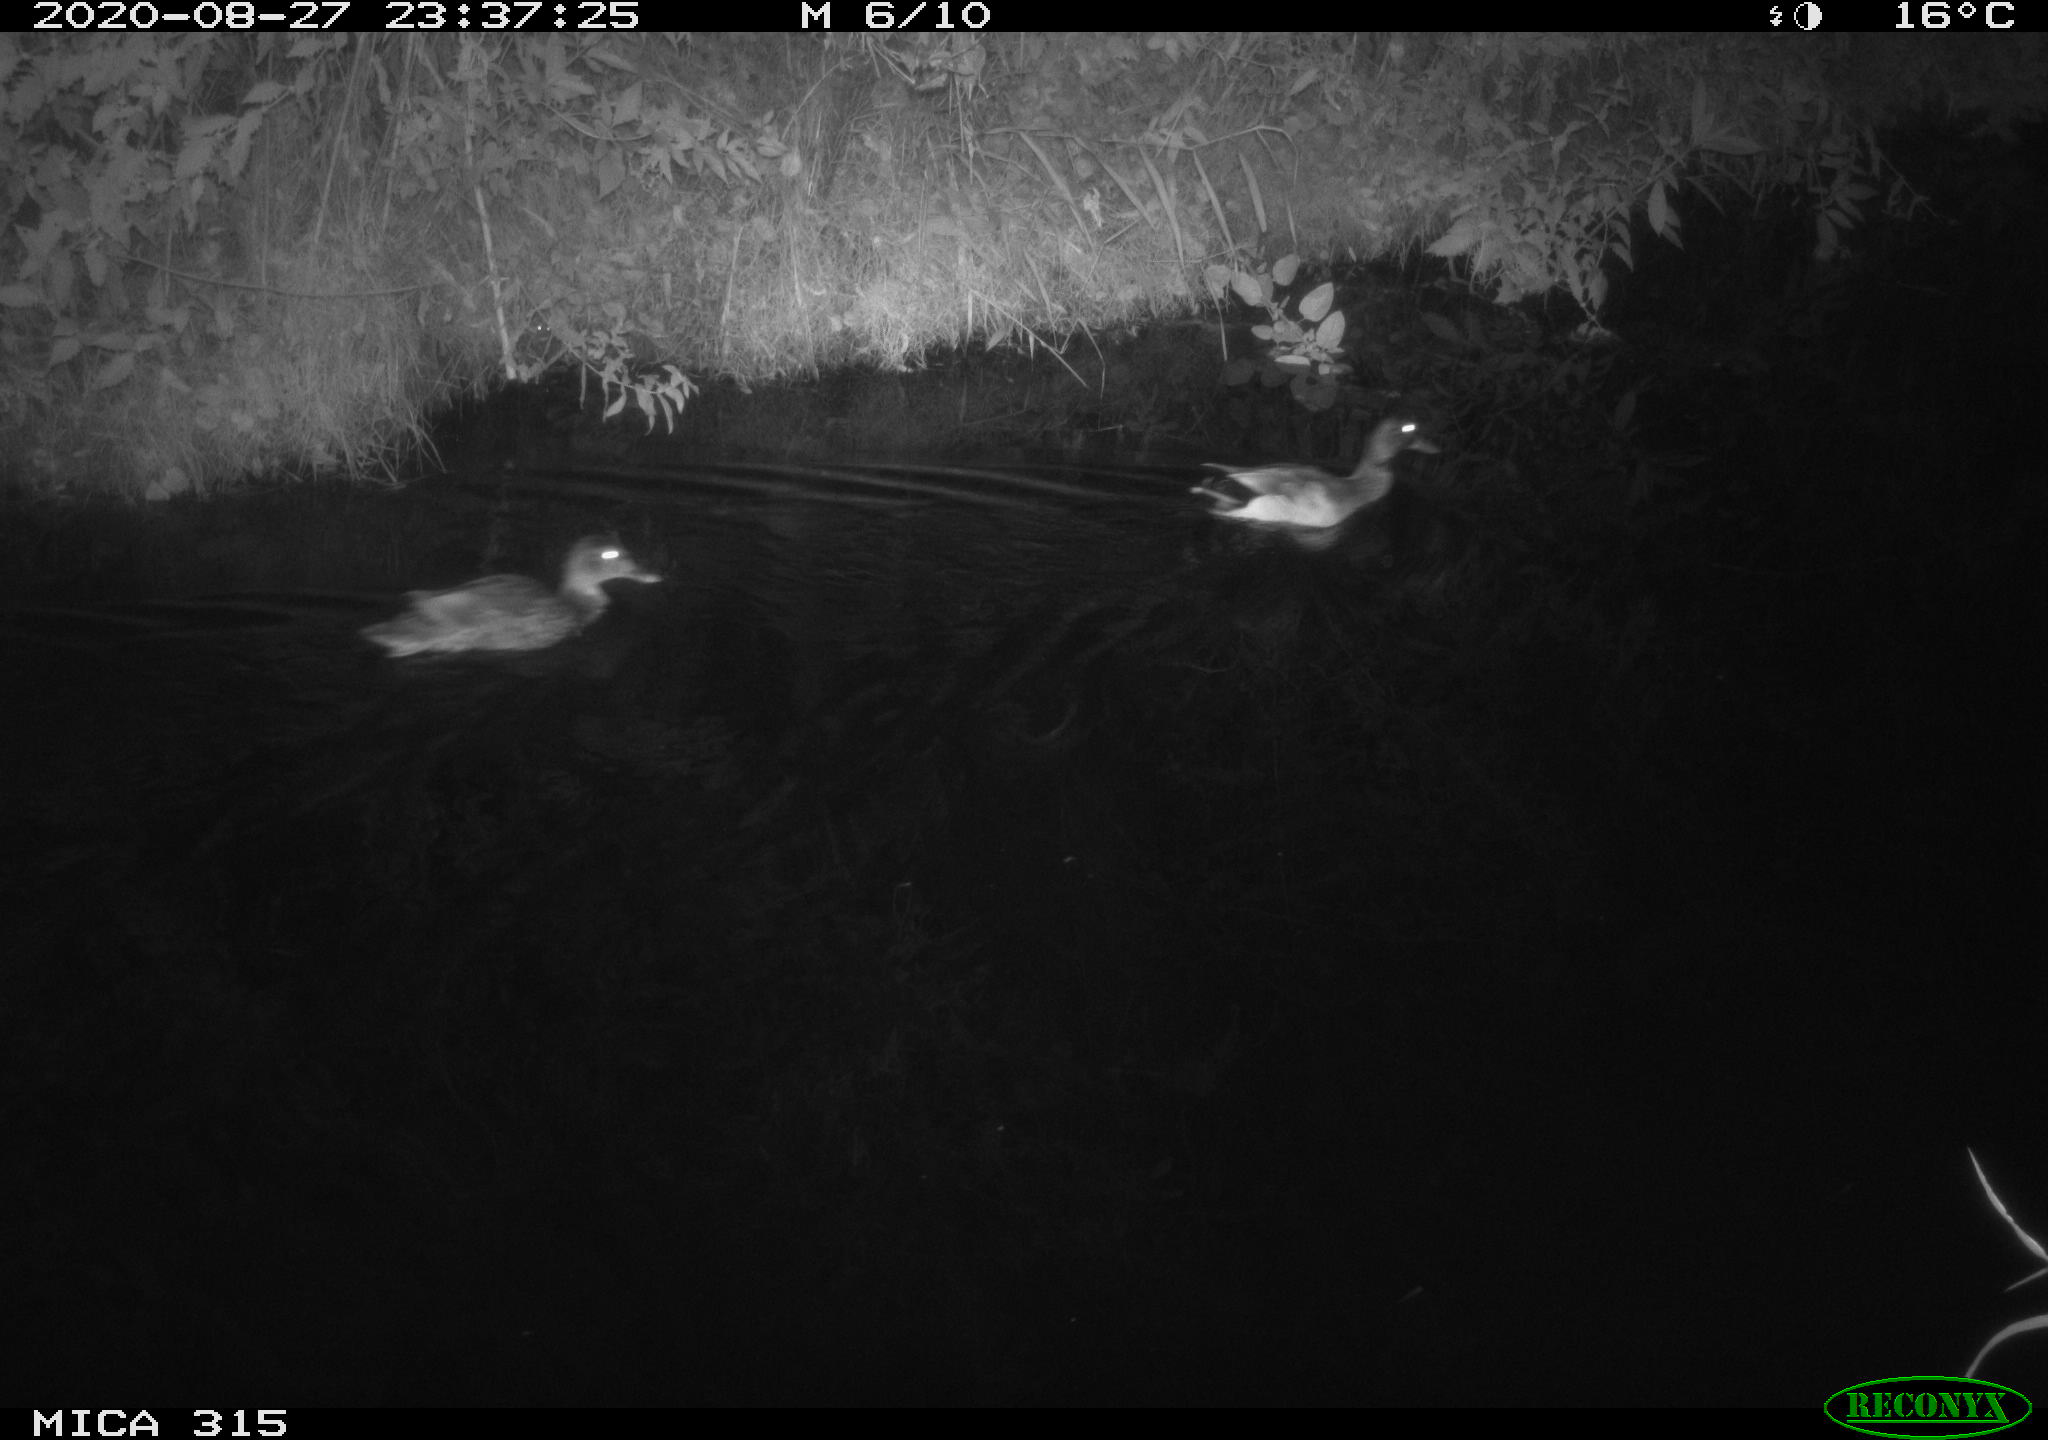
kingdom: Animalia
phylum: Chordata
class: Aves
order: Anseriformes
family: Anatidae
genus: Anas
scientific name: Anas platyrhynchos
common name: Mallard
